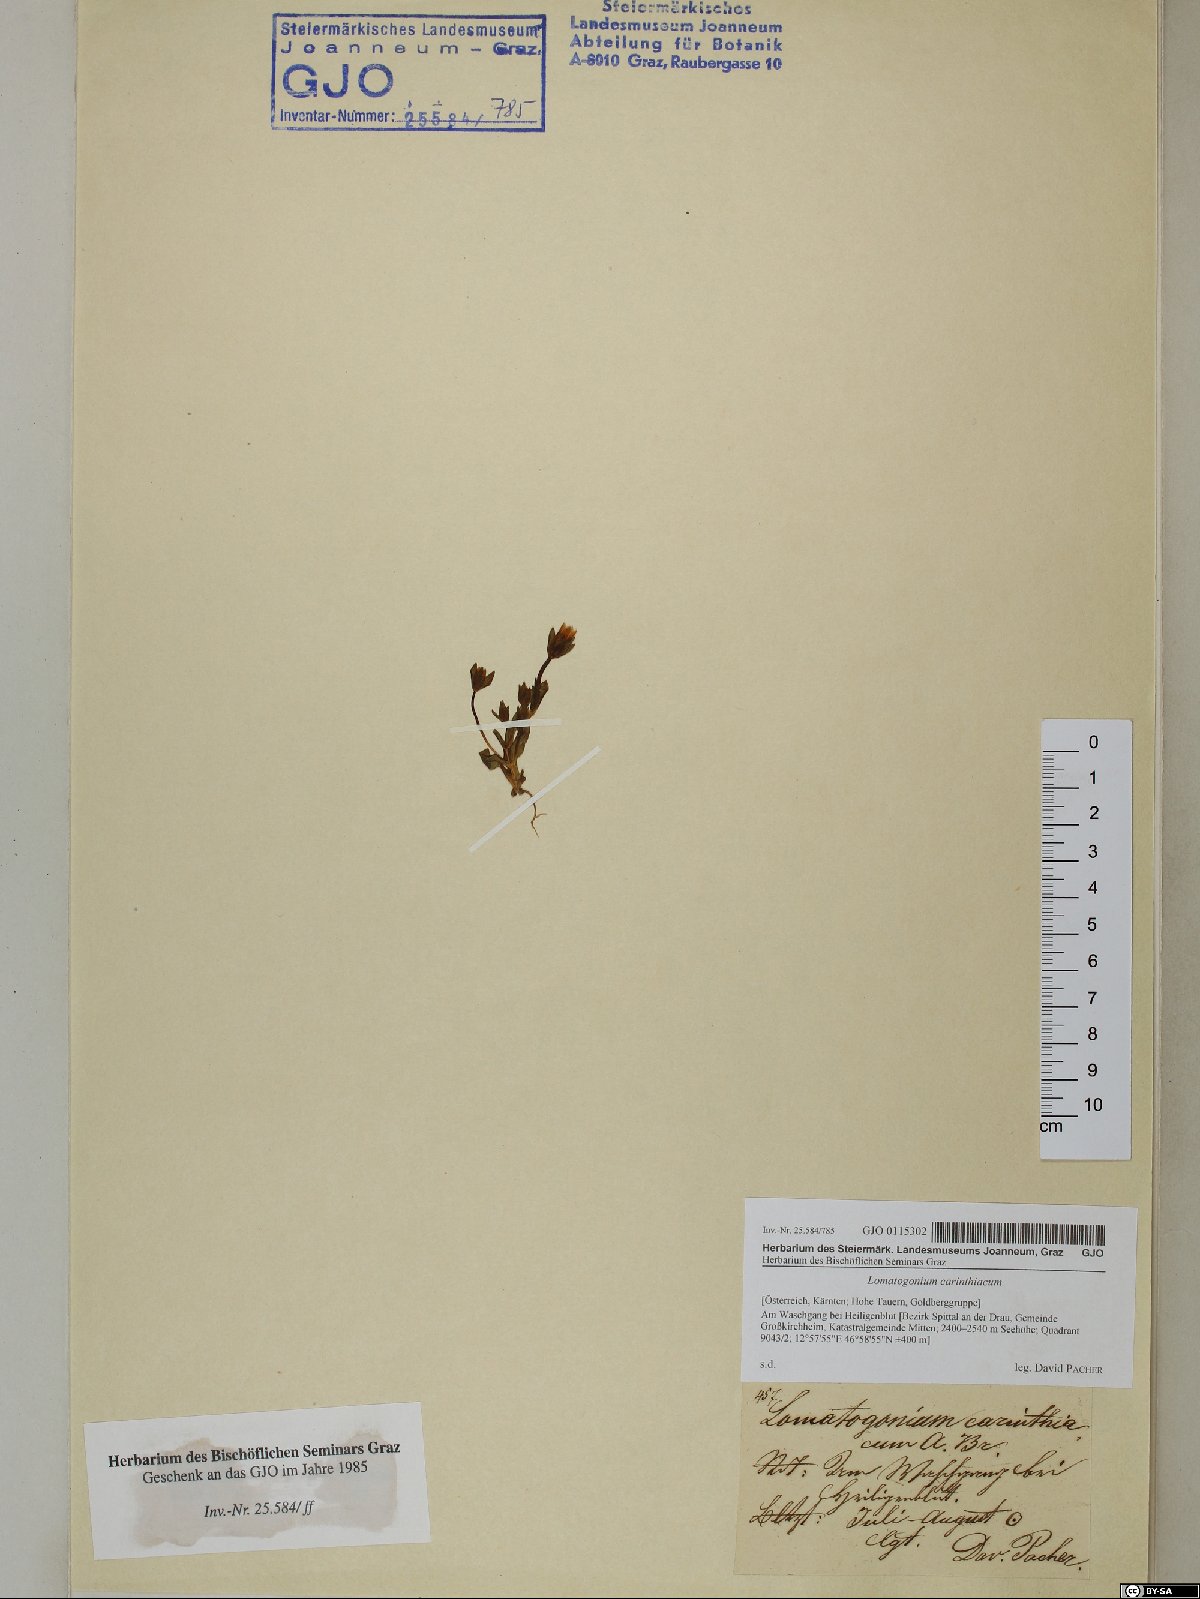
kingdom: Plantae
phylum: Tracheophyta
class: Magnoliopsida
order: Gentianales
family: Gentianaceae
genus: Lomatogonium
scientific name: Lomatogonium carinthiacum
